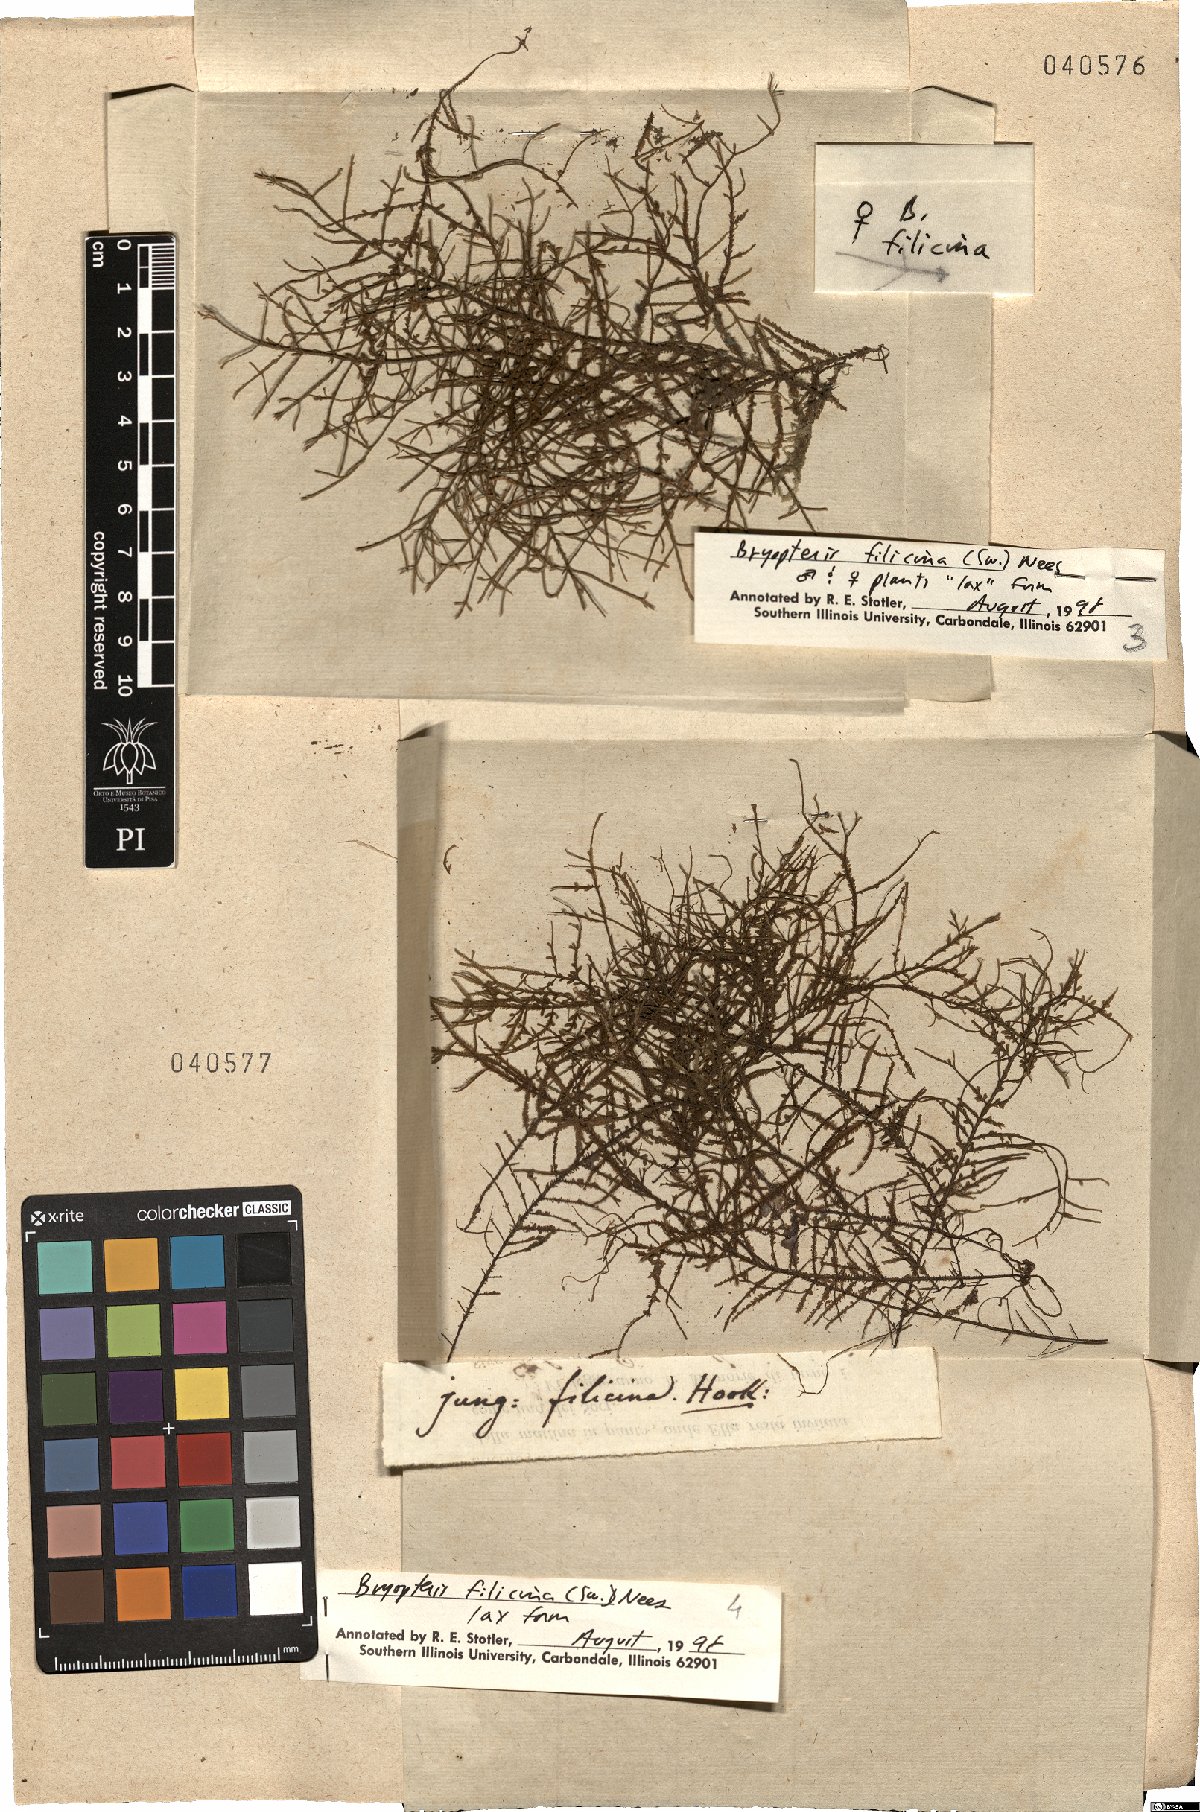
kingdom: Plantae
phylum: Marchantiophyta
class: Jungermanniopsida
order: Porellales
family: Lejeuneaceae
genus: Bryopteris
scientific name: Bryopteris filicina
